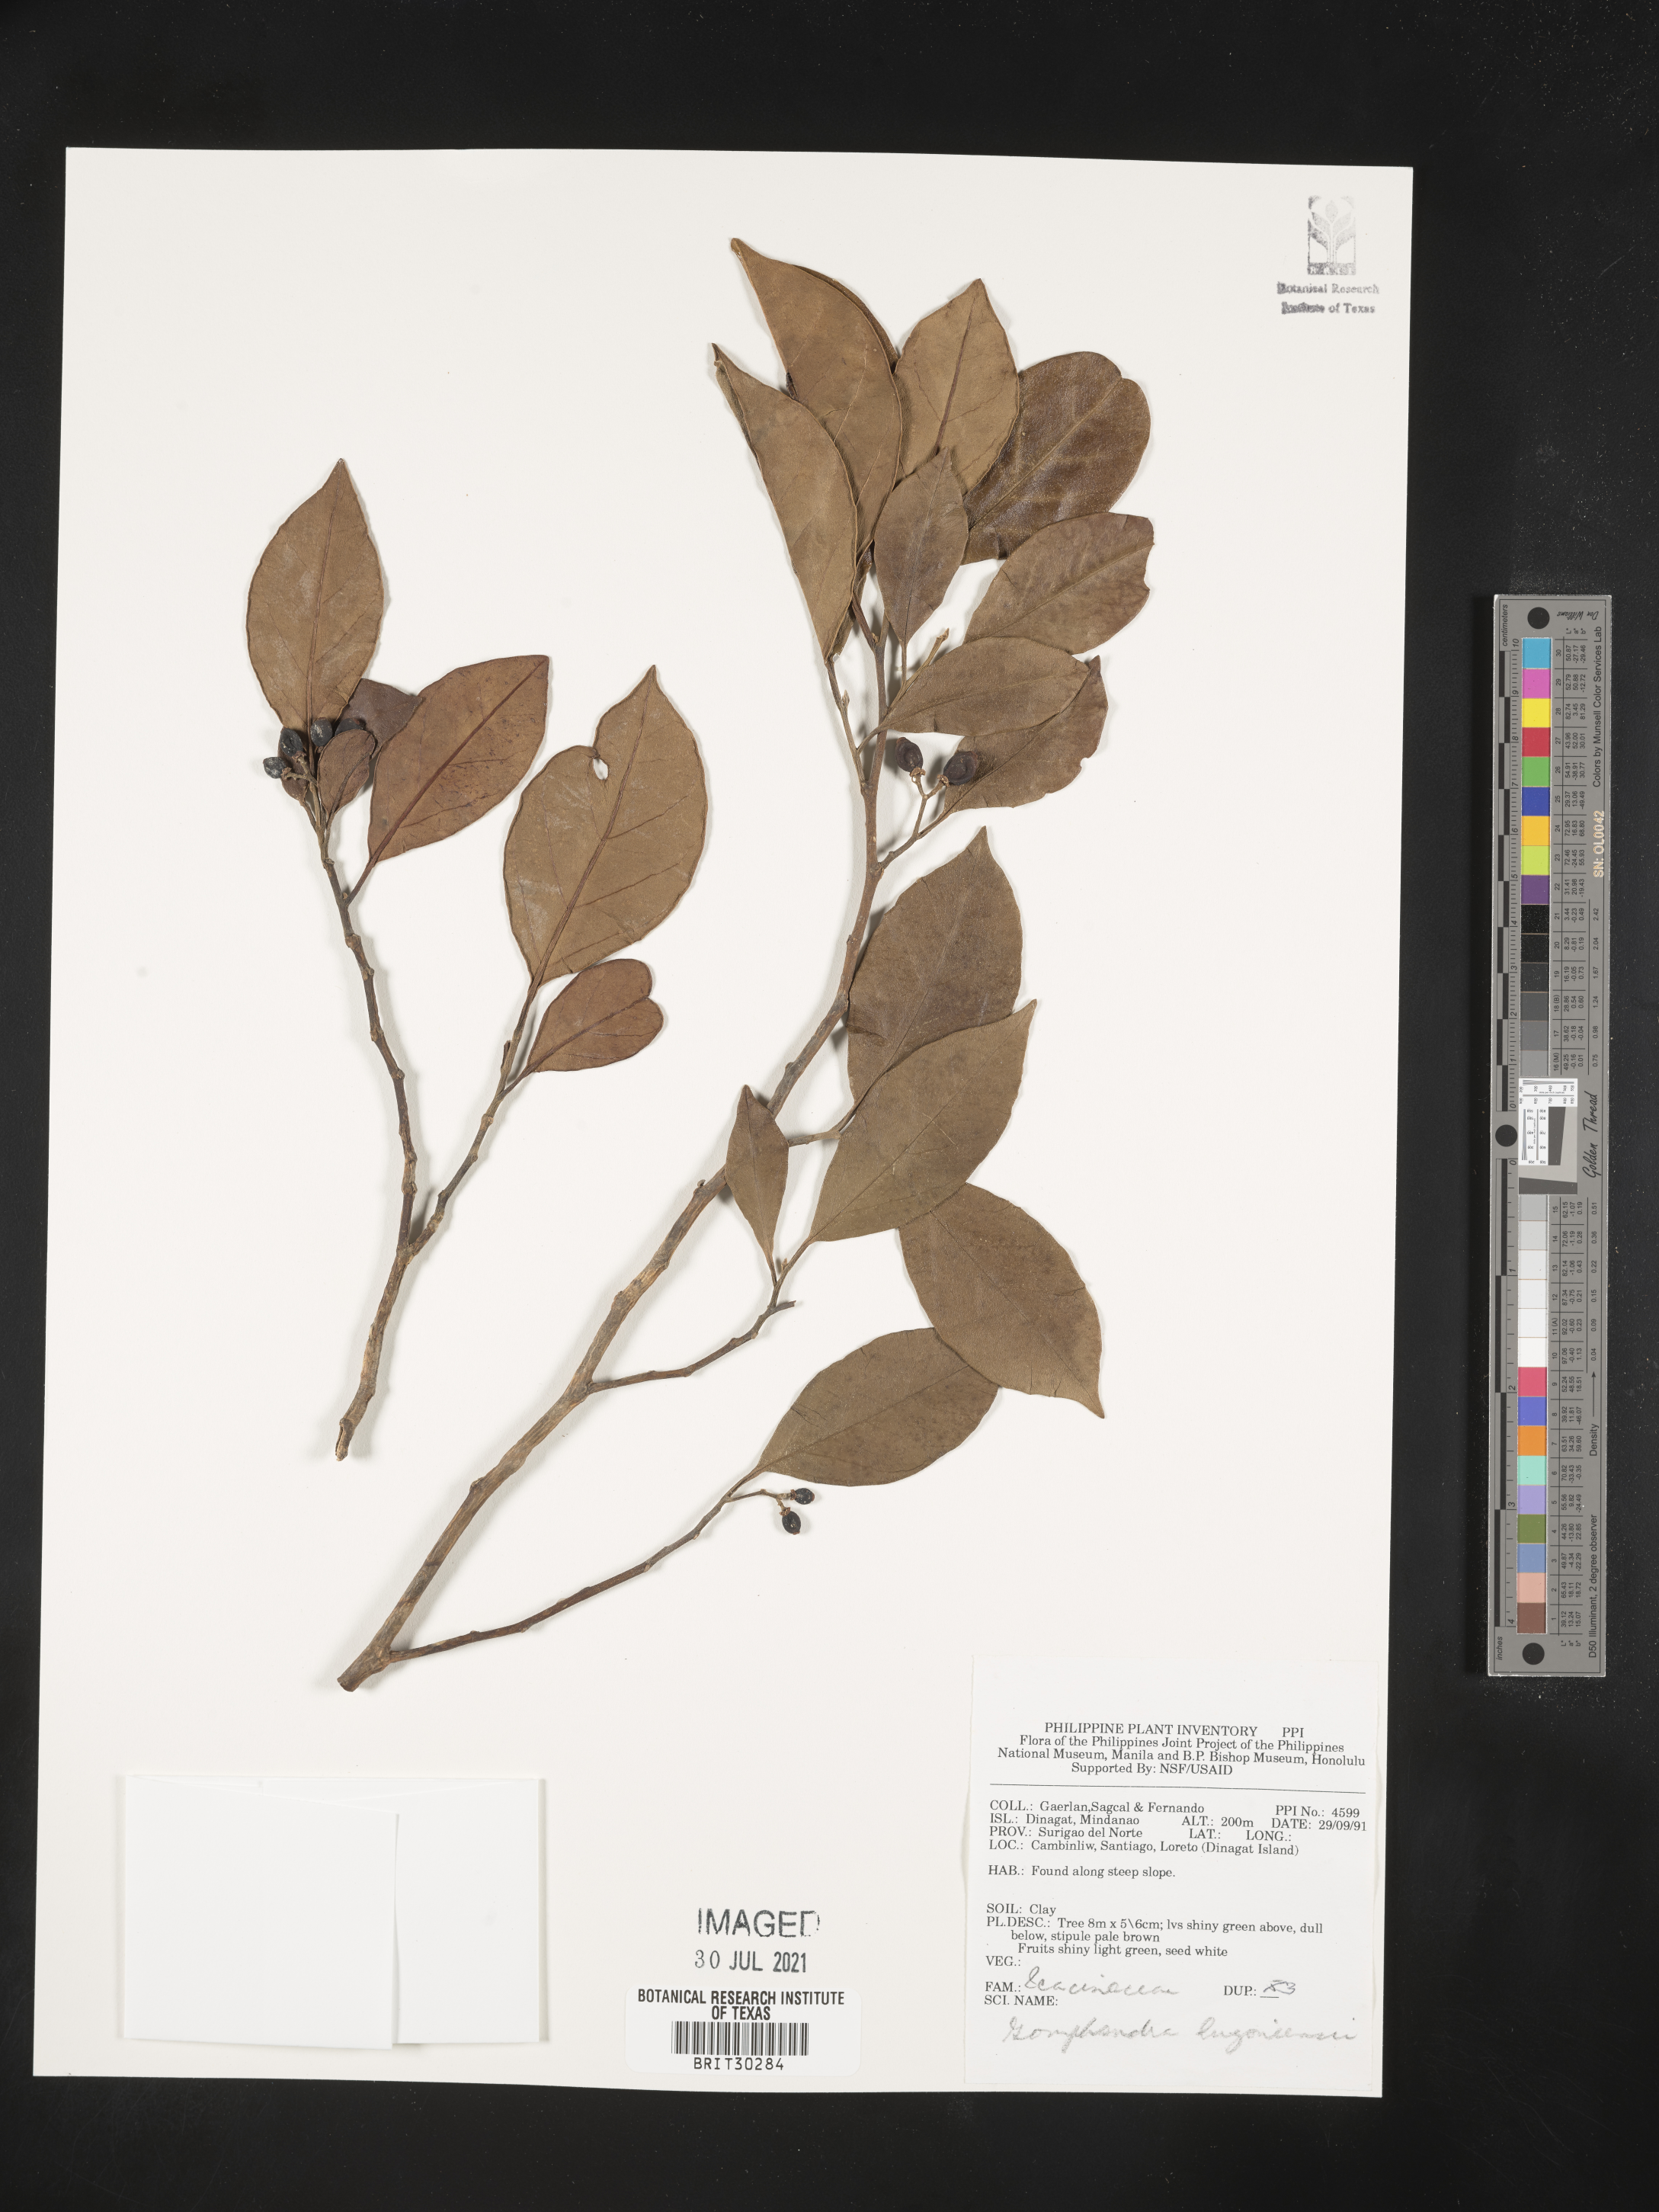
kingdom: Plantae
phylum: Tracheophyta
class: Magnoliopsida
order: Cardiopteridales
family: Stemonuraceae
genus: Gomphandra
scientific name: Gomphandra luzoniensis
